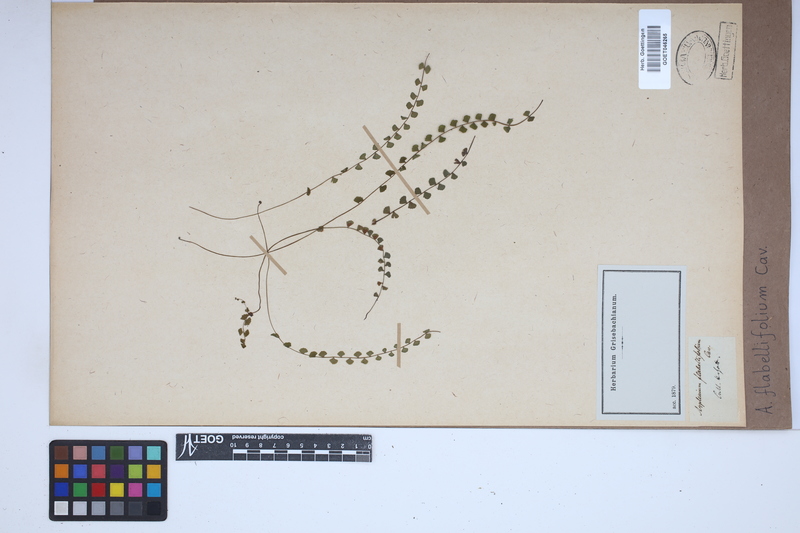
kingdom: Plantae
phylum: Tracheophyta
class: Polypodiopsida
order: Polypodiales
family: Aspleniaceae
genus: Asplenium
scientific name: Asplenium flabellifolium
